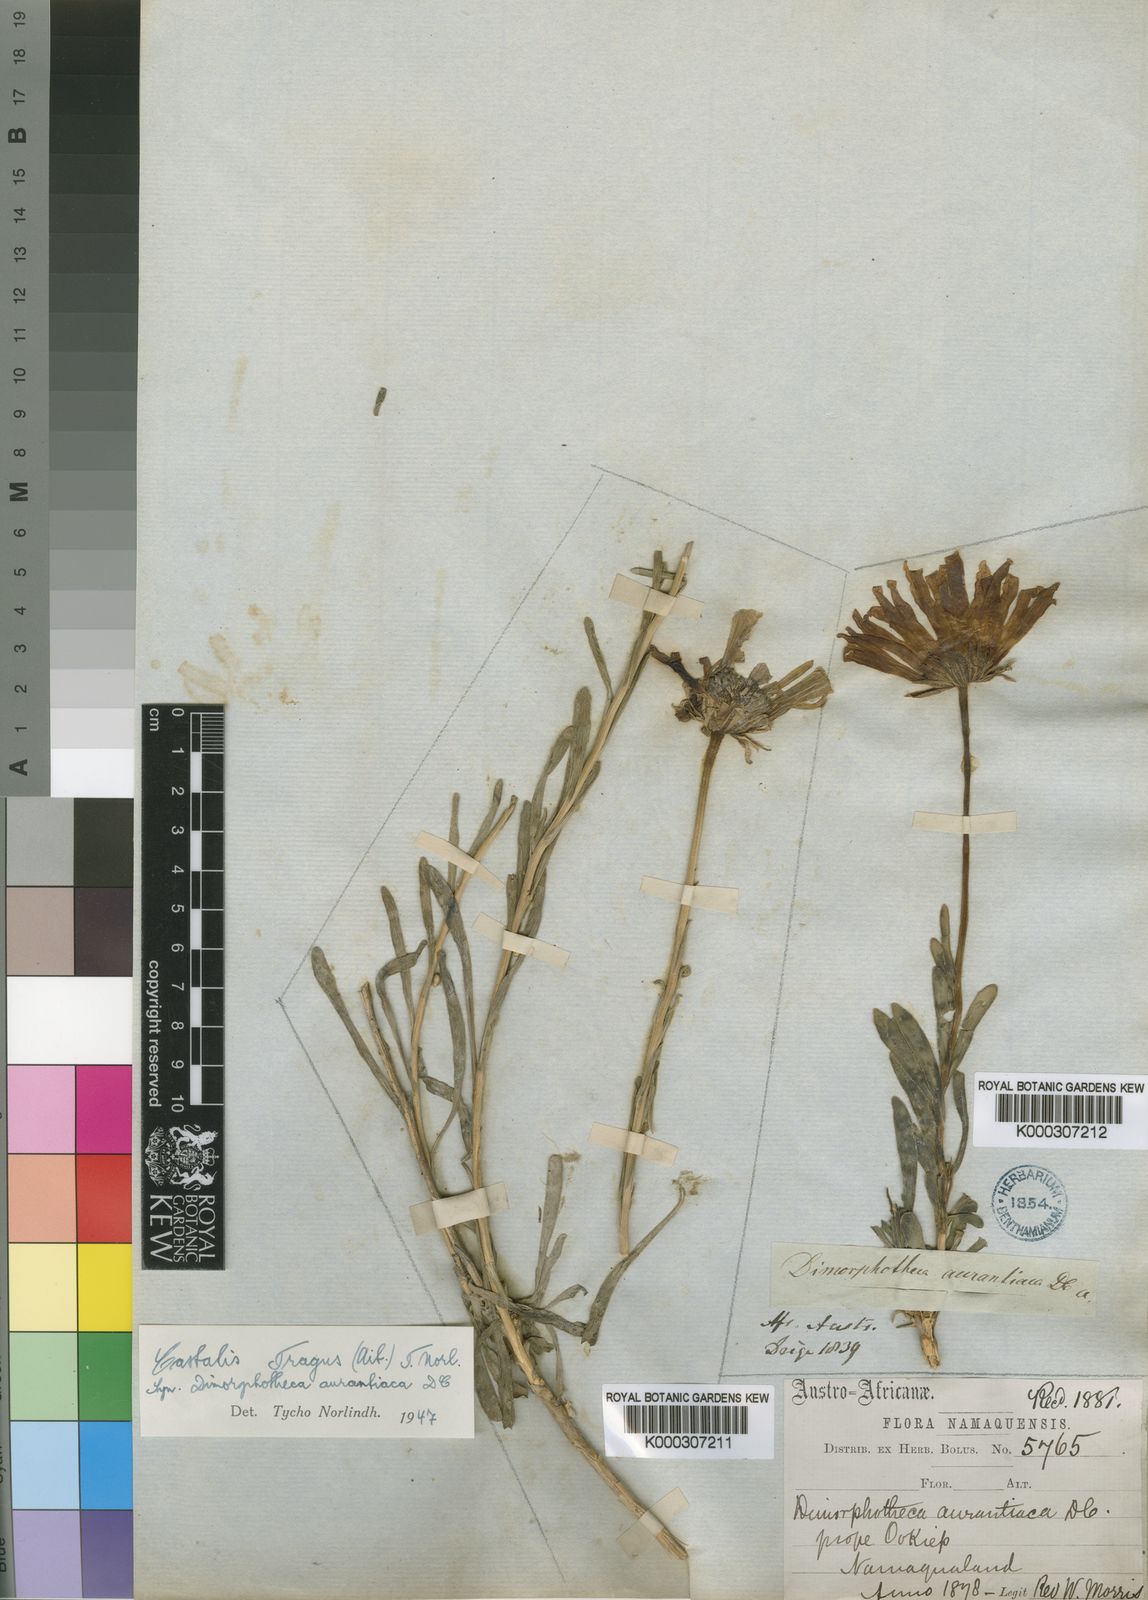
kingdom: Plantae
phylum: Tracheophyta
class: Magnoliopsida
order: Asterales
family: Asteraceae
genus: Dimorphotheca
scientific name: Dimorphotheca tragus
